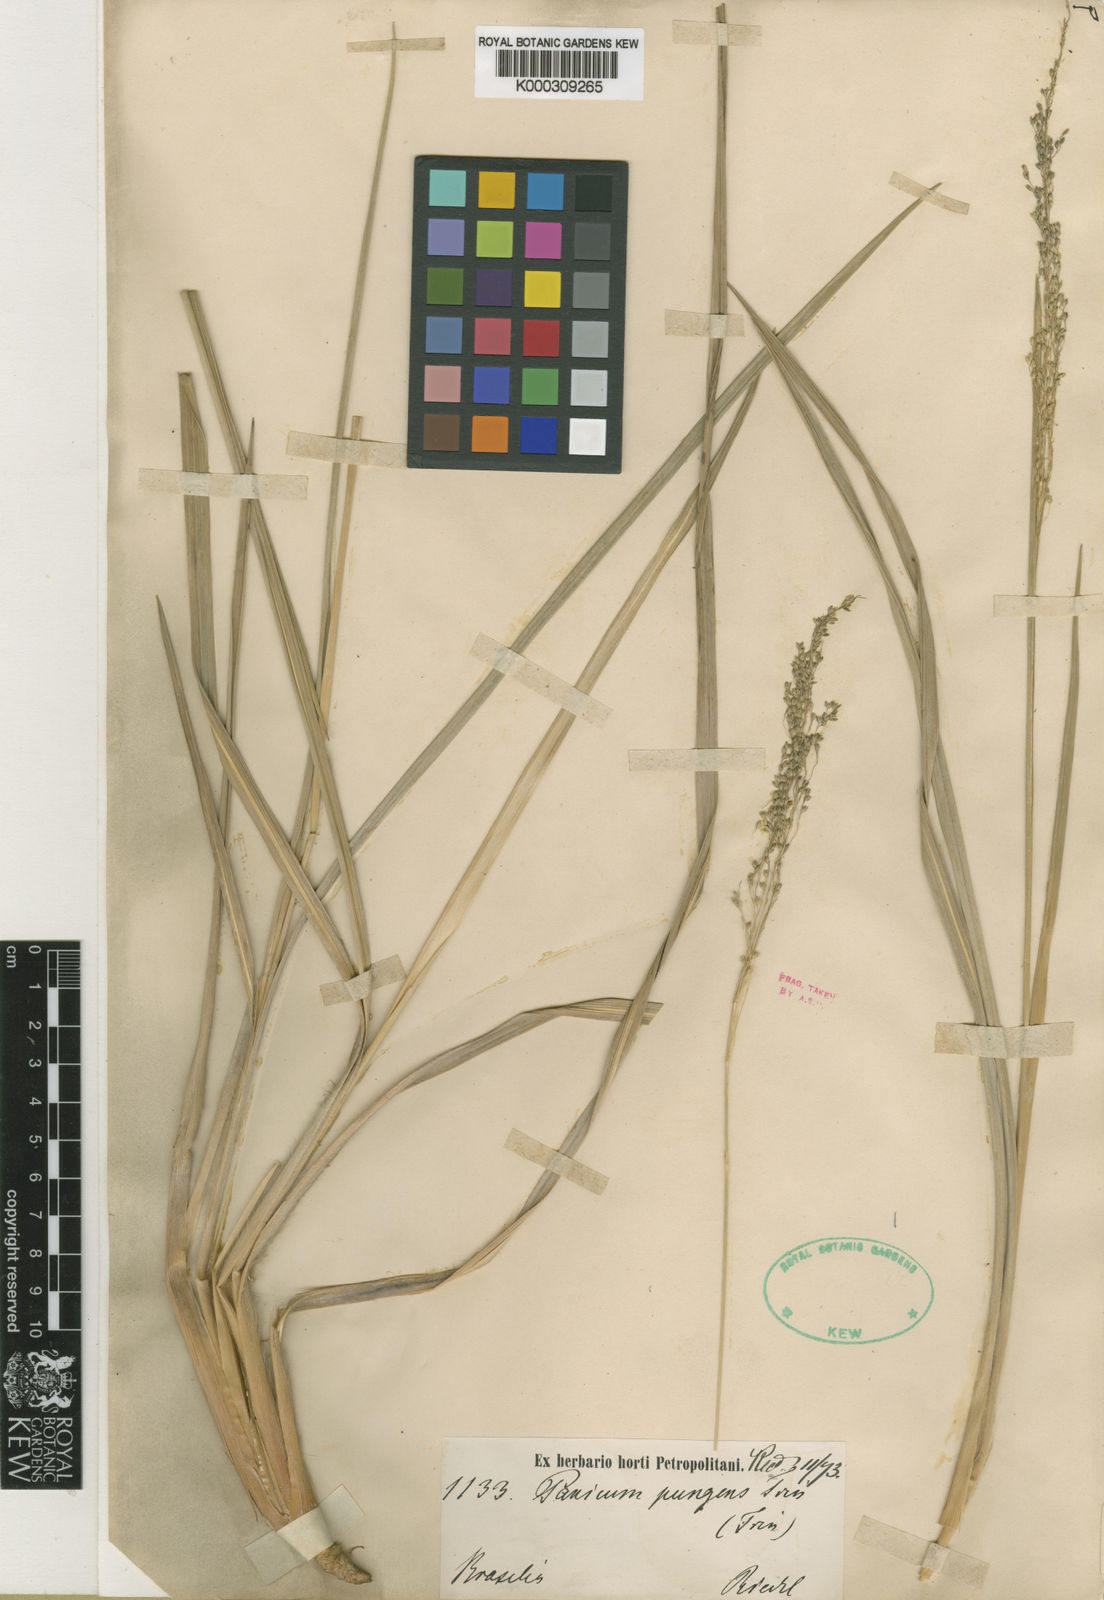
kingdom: Plantae
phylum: Tracheophyta
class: Liliopsida
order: Poales
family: Poaceae
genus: Apochloa
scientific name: Apochloa chnoodes
